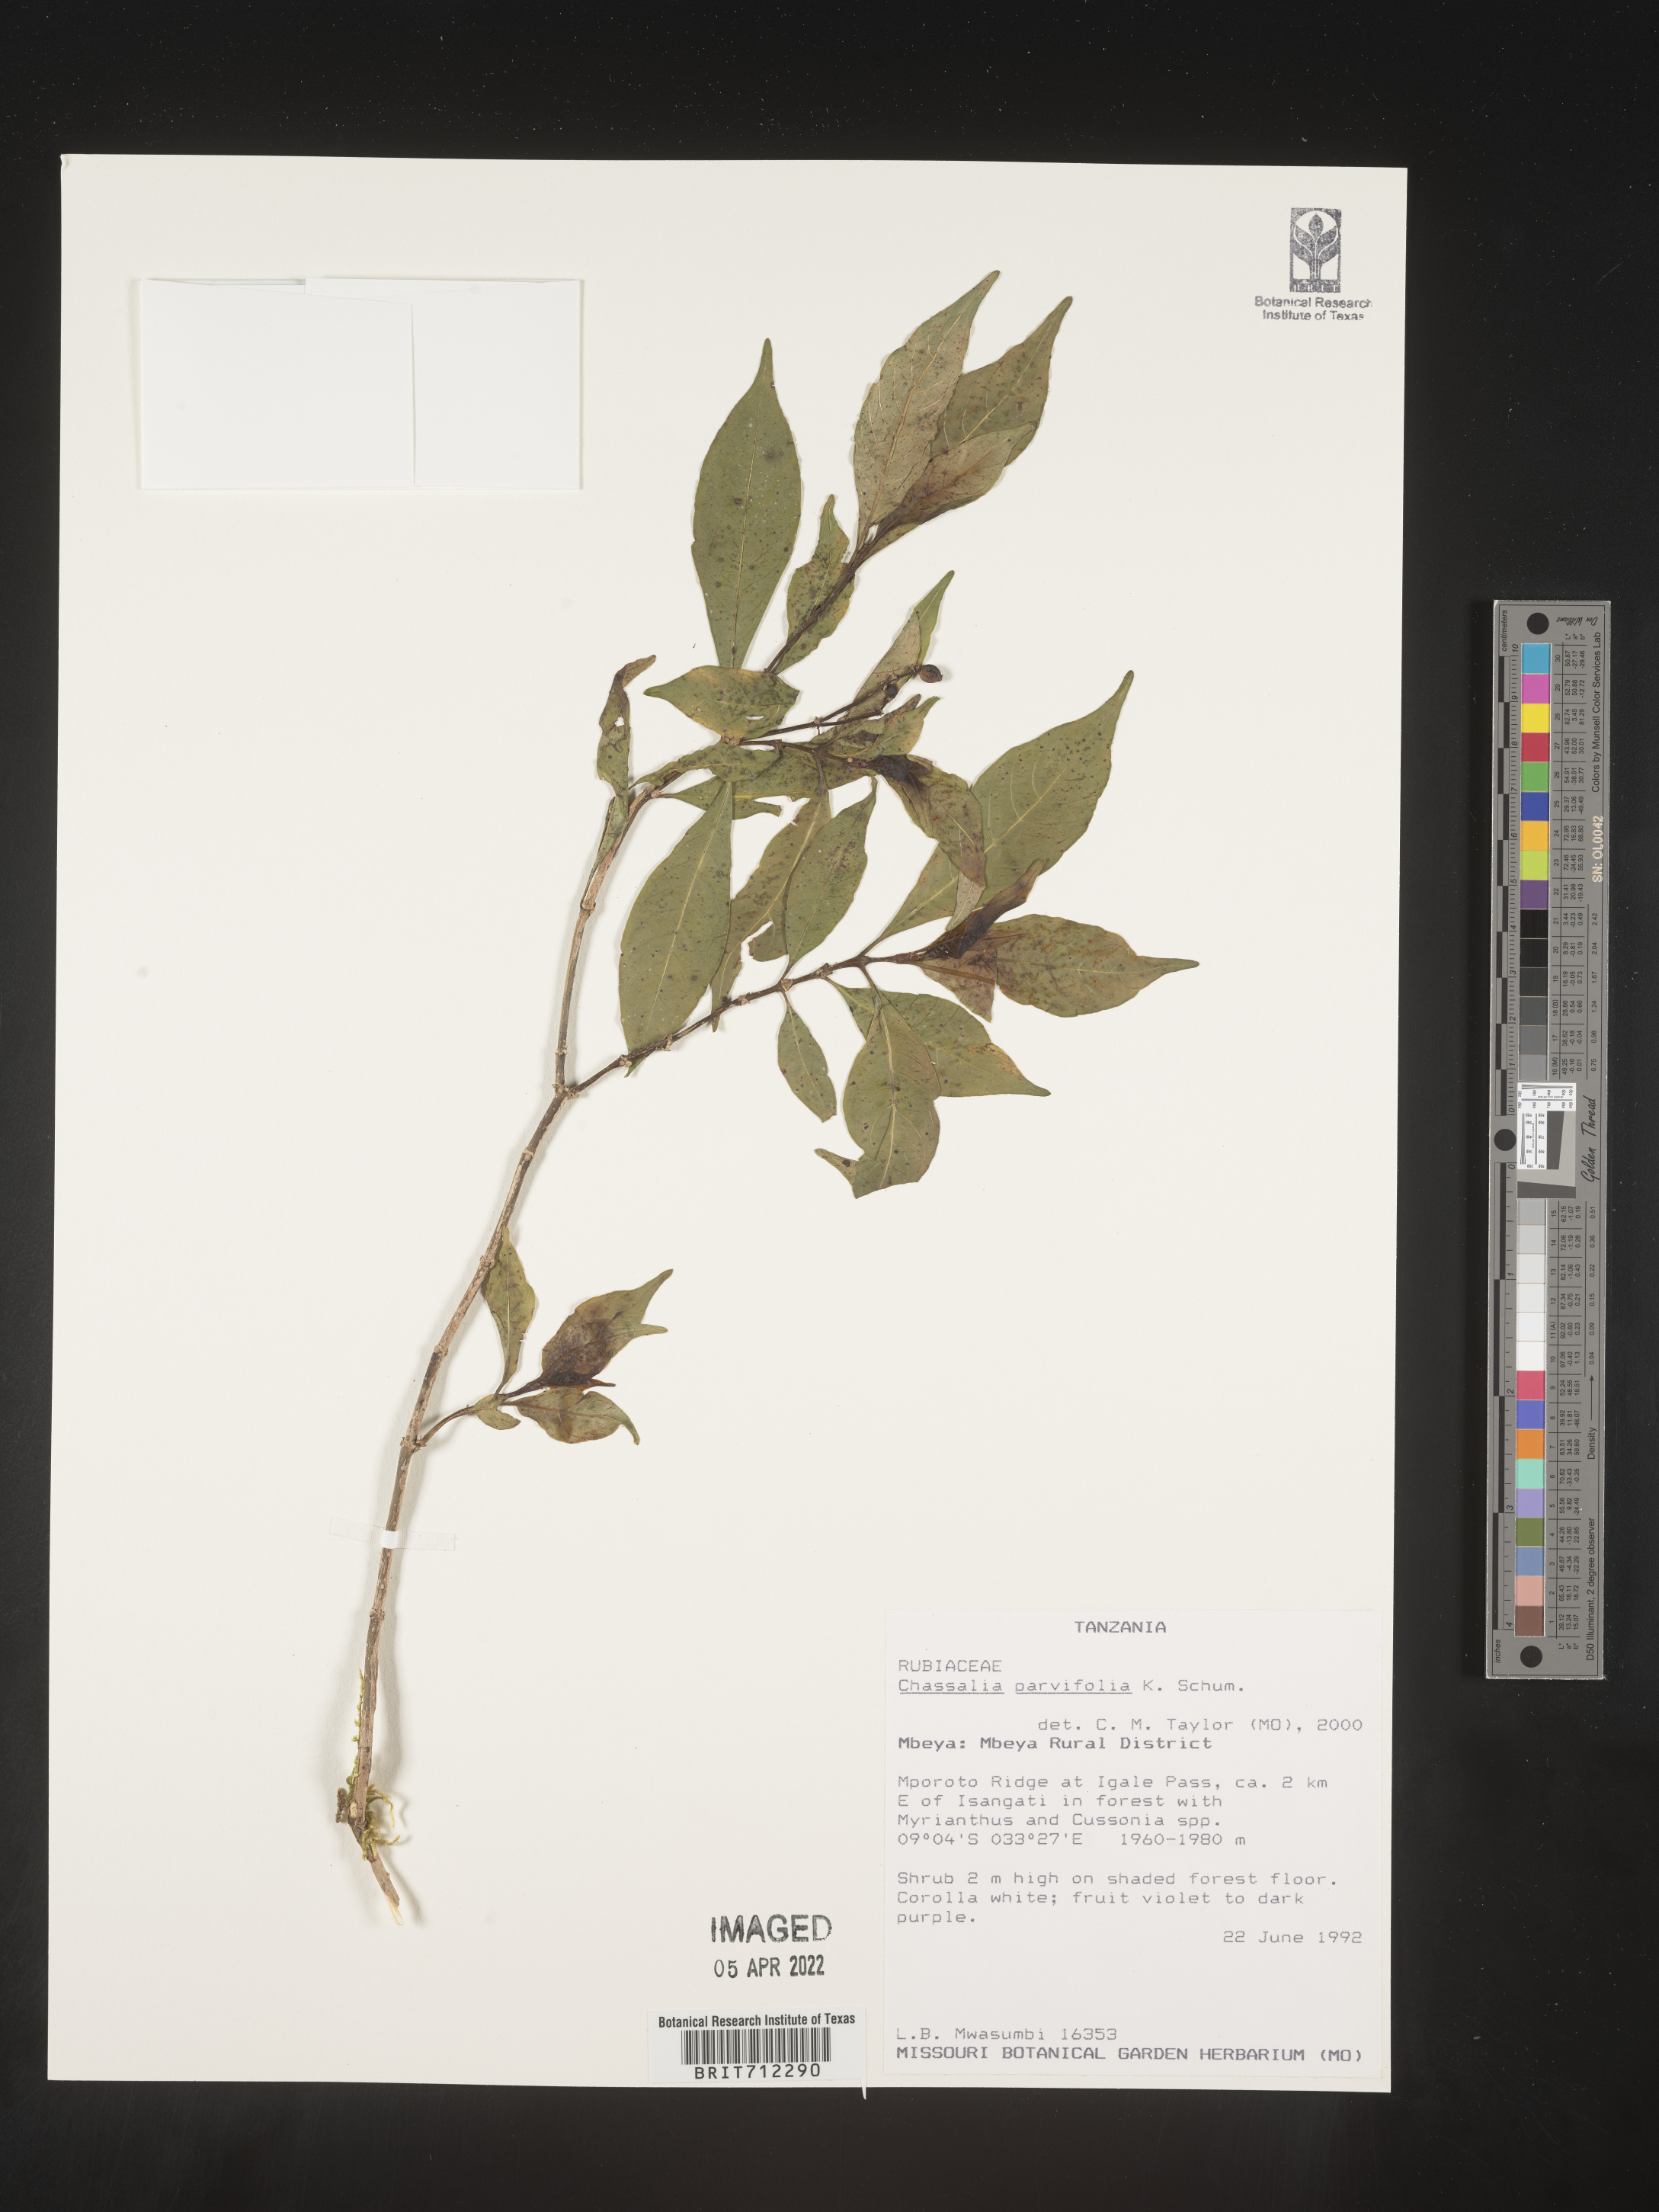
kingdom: Plantae
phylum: Tracheophyta
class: Magnoliopsida
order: Gentianales
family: Rubiaceae
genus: Chassalia
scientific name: Chassalia
